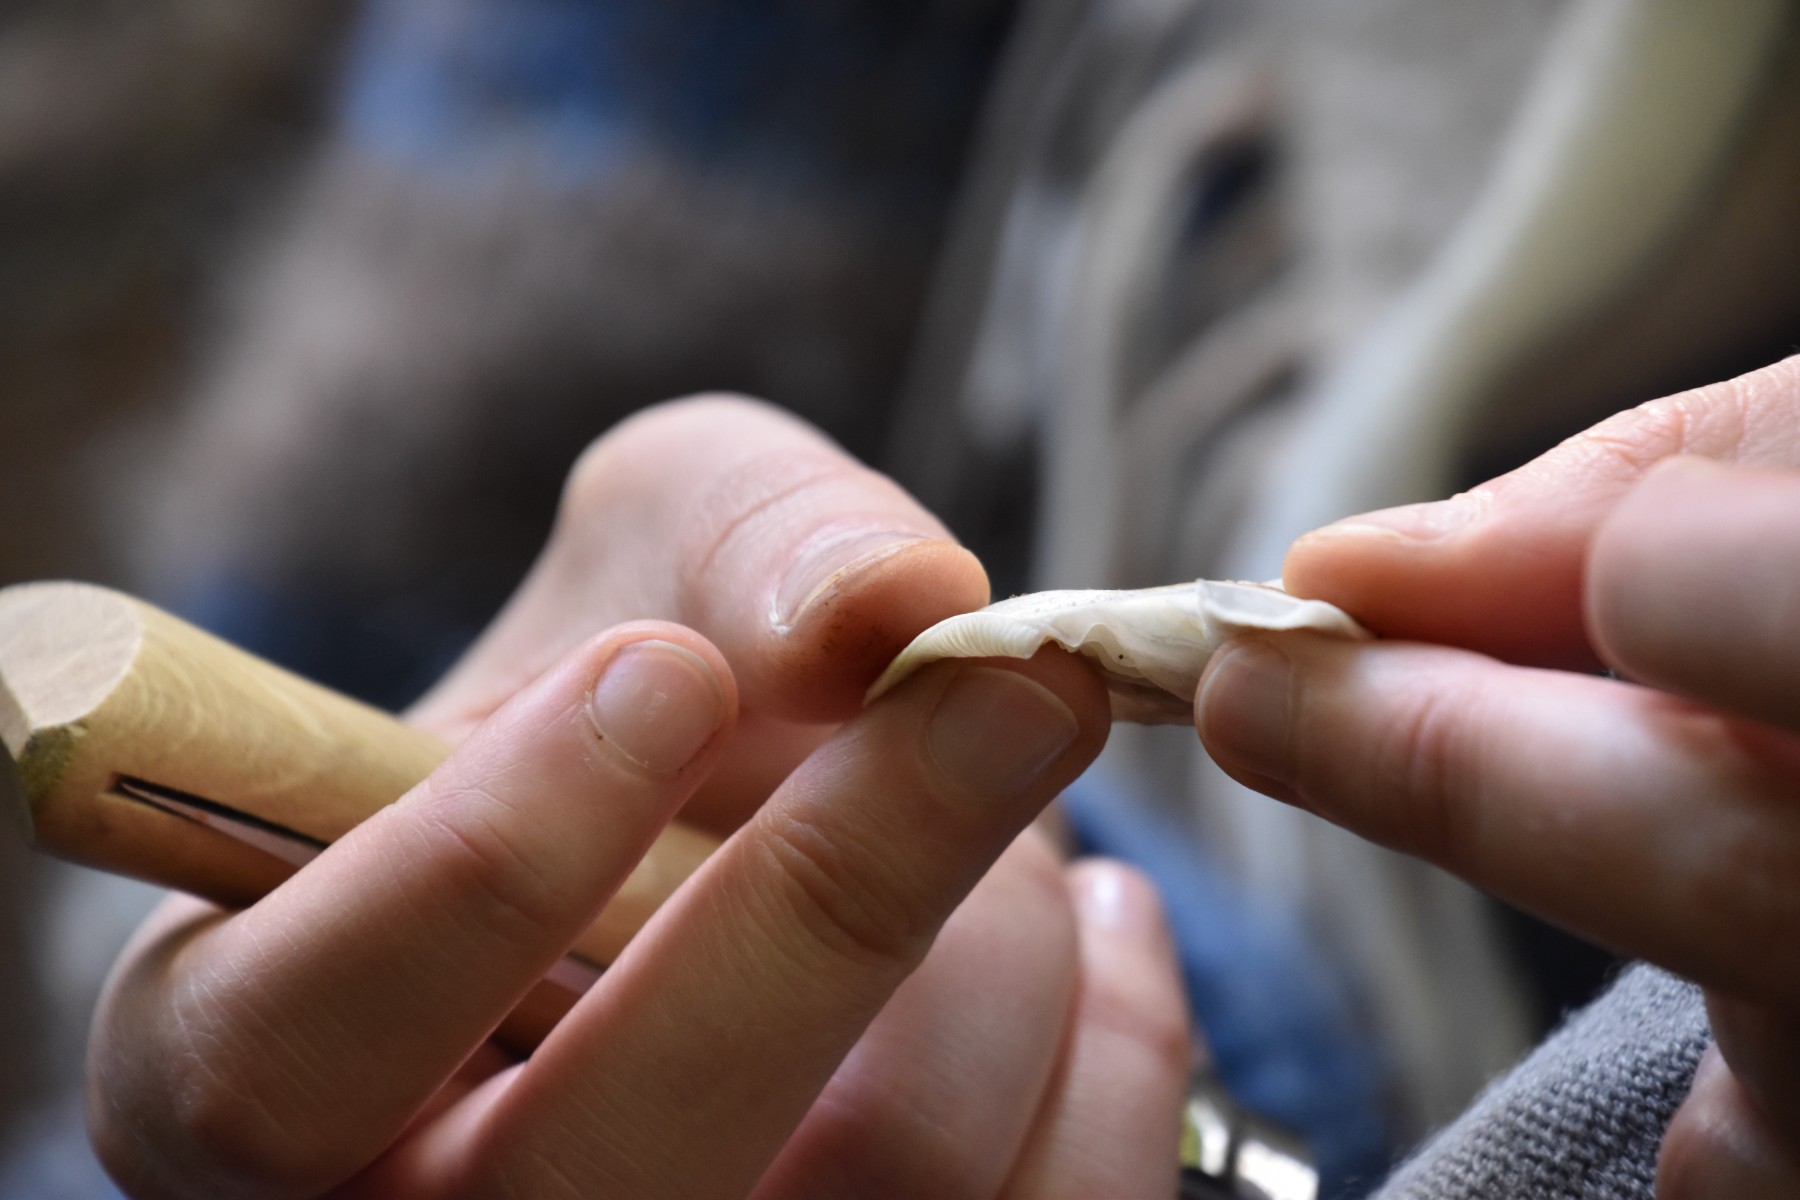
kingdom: Fungi
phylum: Basidiomycota
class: Agaricomycetes
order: Agaricales
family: Crepidotaceae
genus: Crepidotus
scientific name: Crepidotus mollis
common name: blød muslingesvamp
